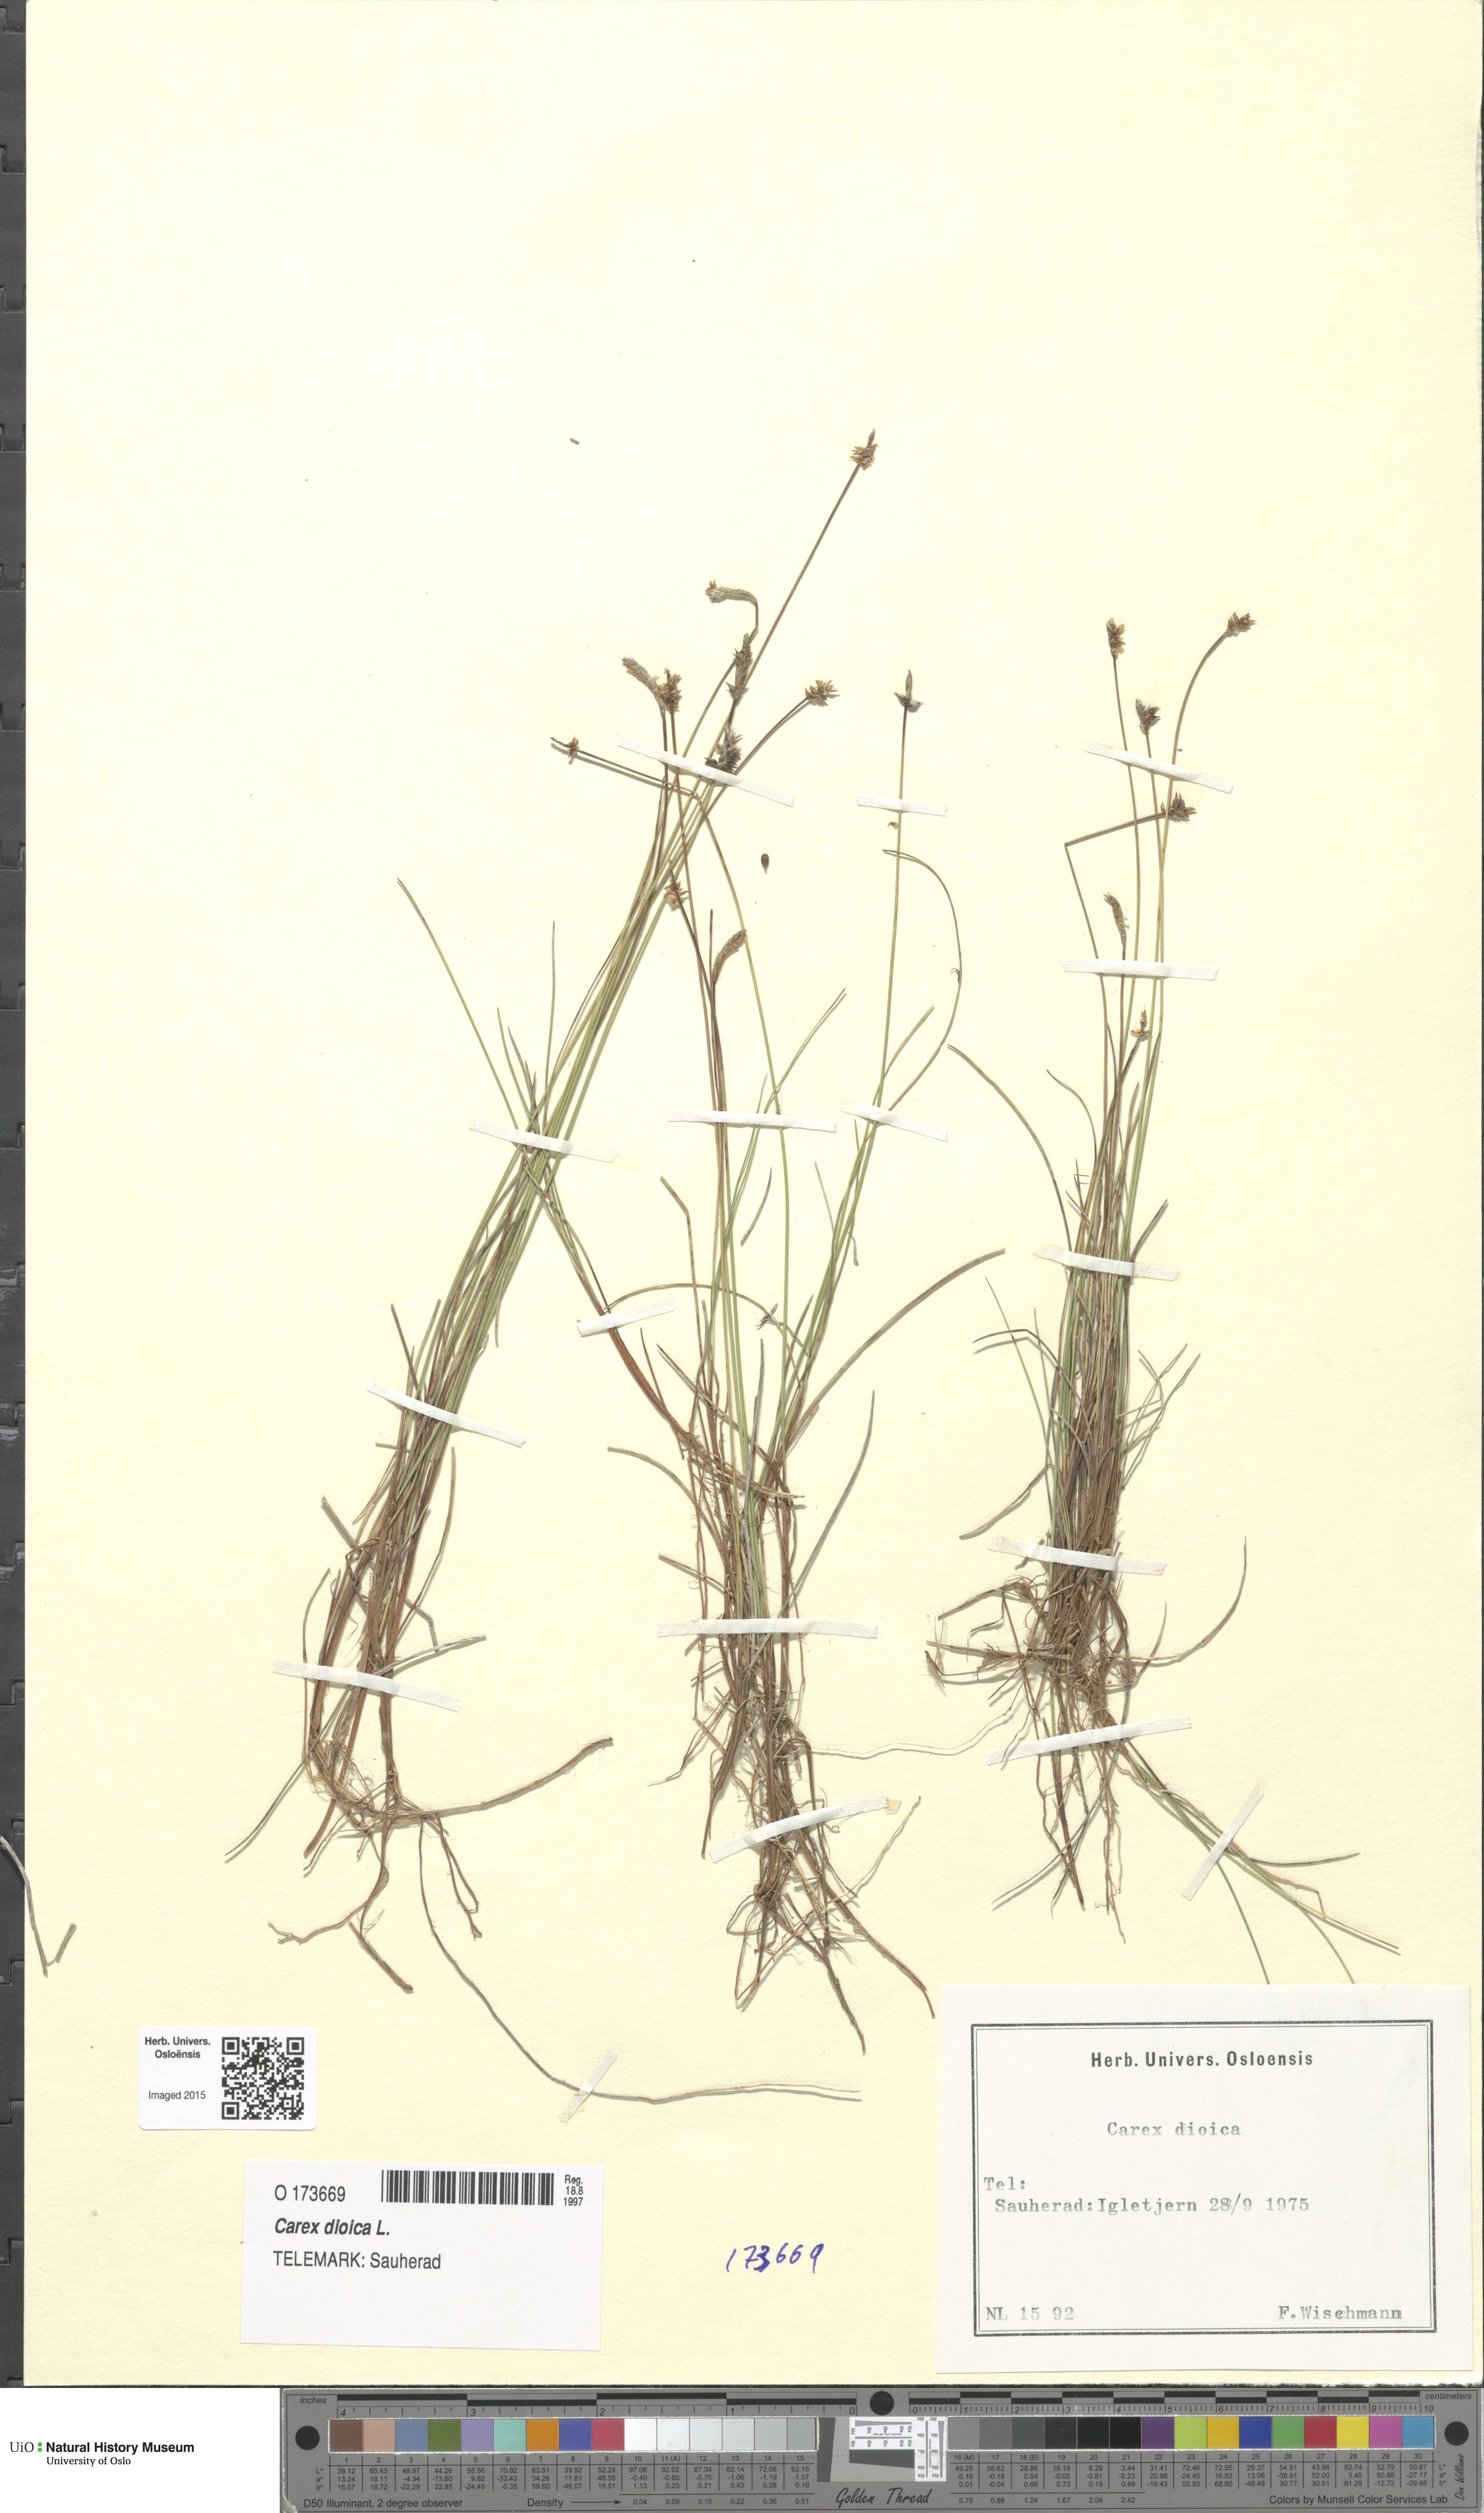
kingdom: Plantae
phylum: Tracheophyta
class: Liliopsida
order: Poales
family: Cyperaceae
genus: Carex
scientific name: Carex dioica
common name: Dioecious sedge
